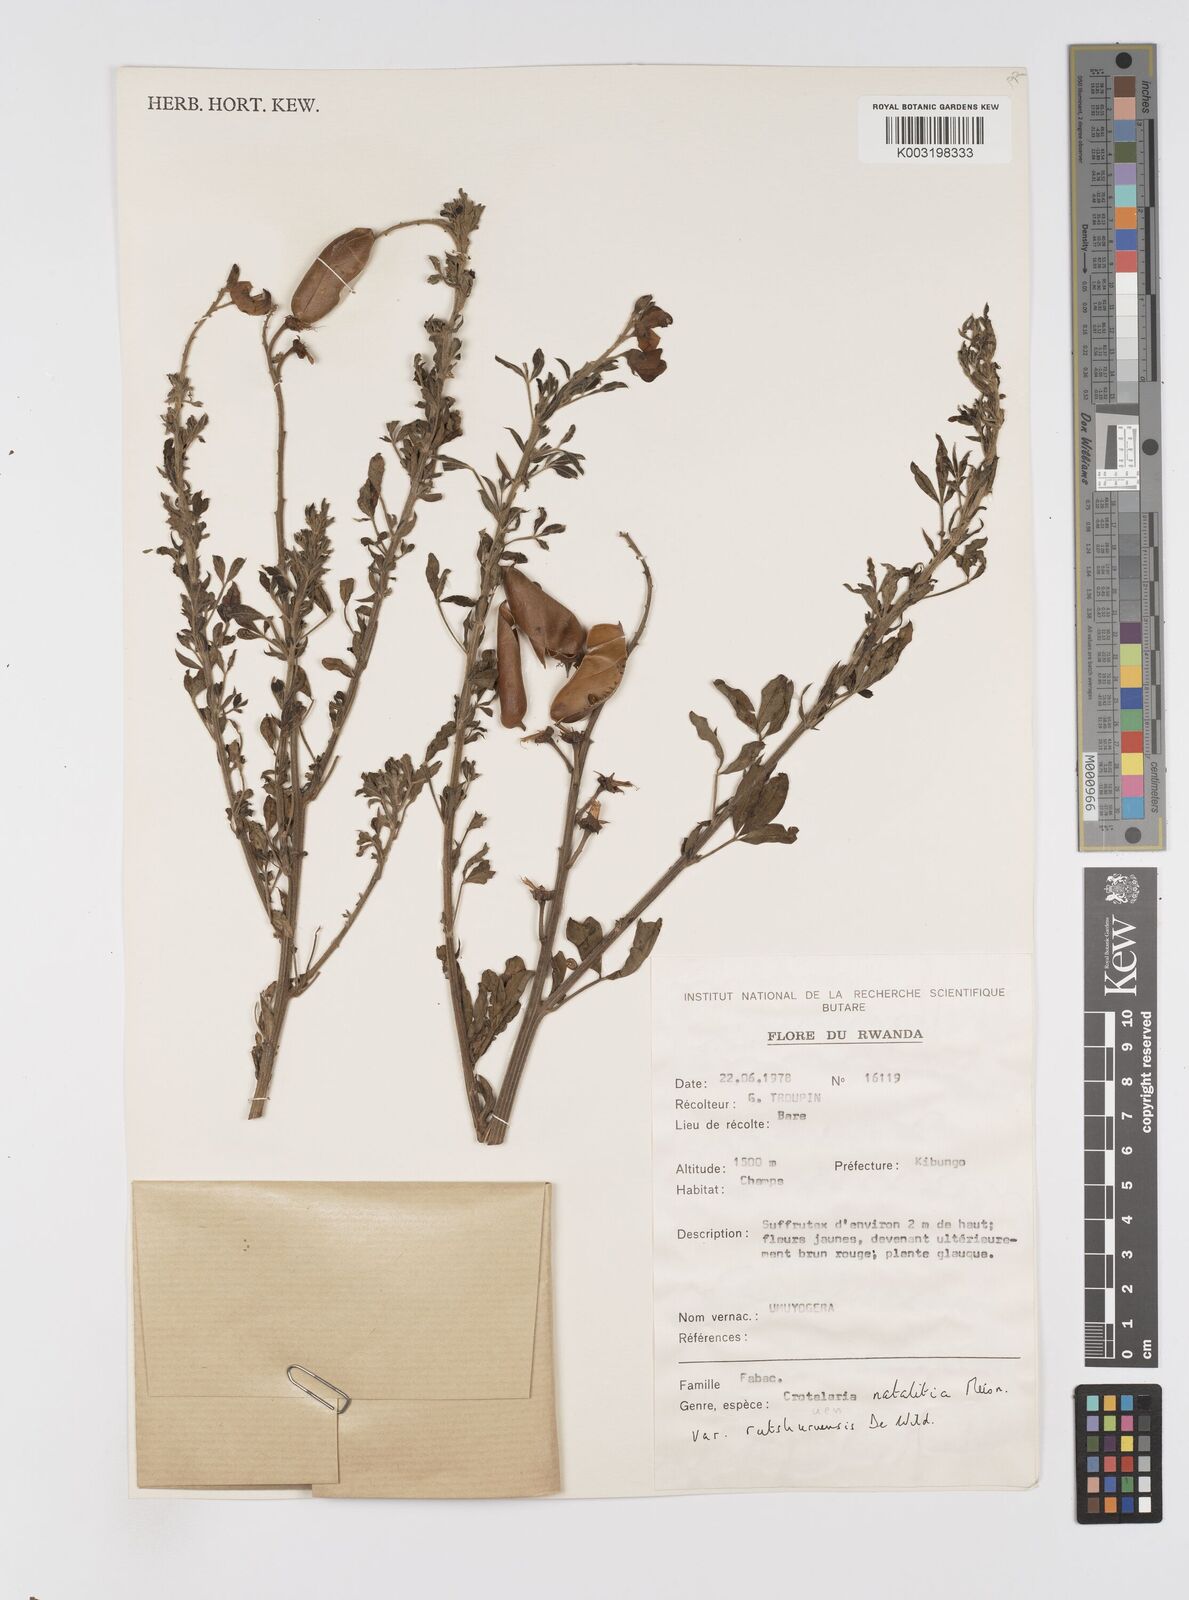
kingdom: Plantae
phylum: Tracheophyta
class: Magnoliopsida
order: Fabales
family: Fabaceae
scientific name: Fabaceae
